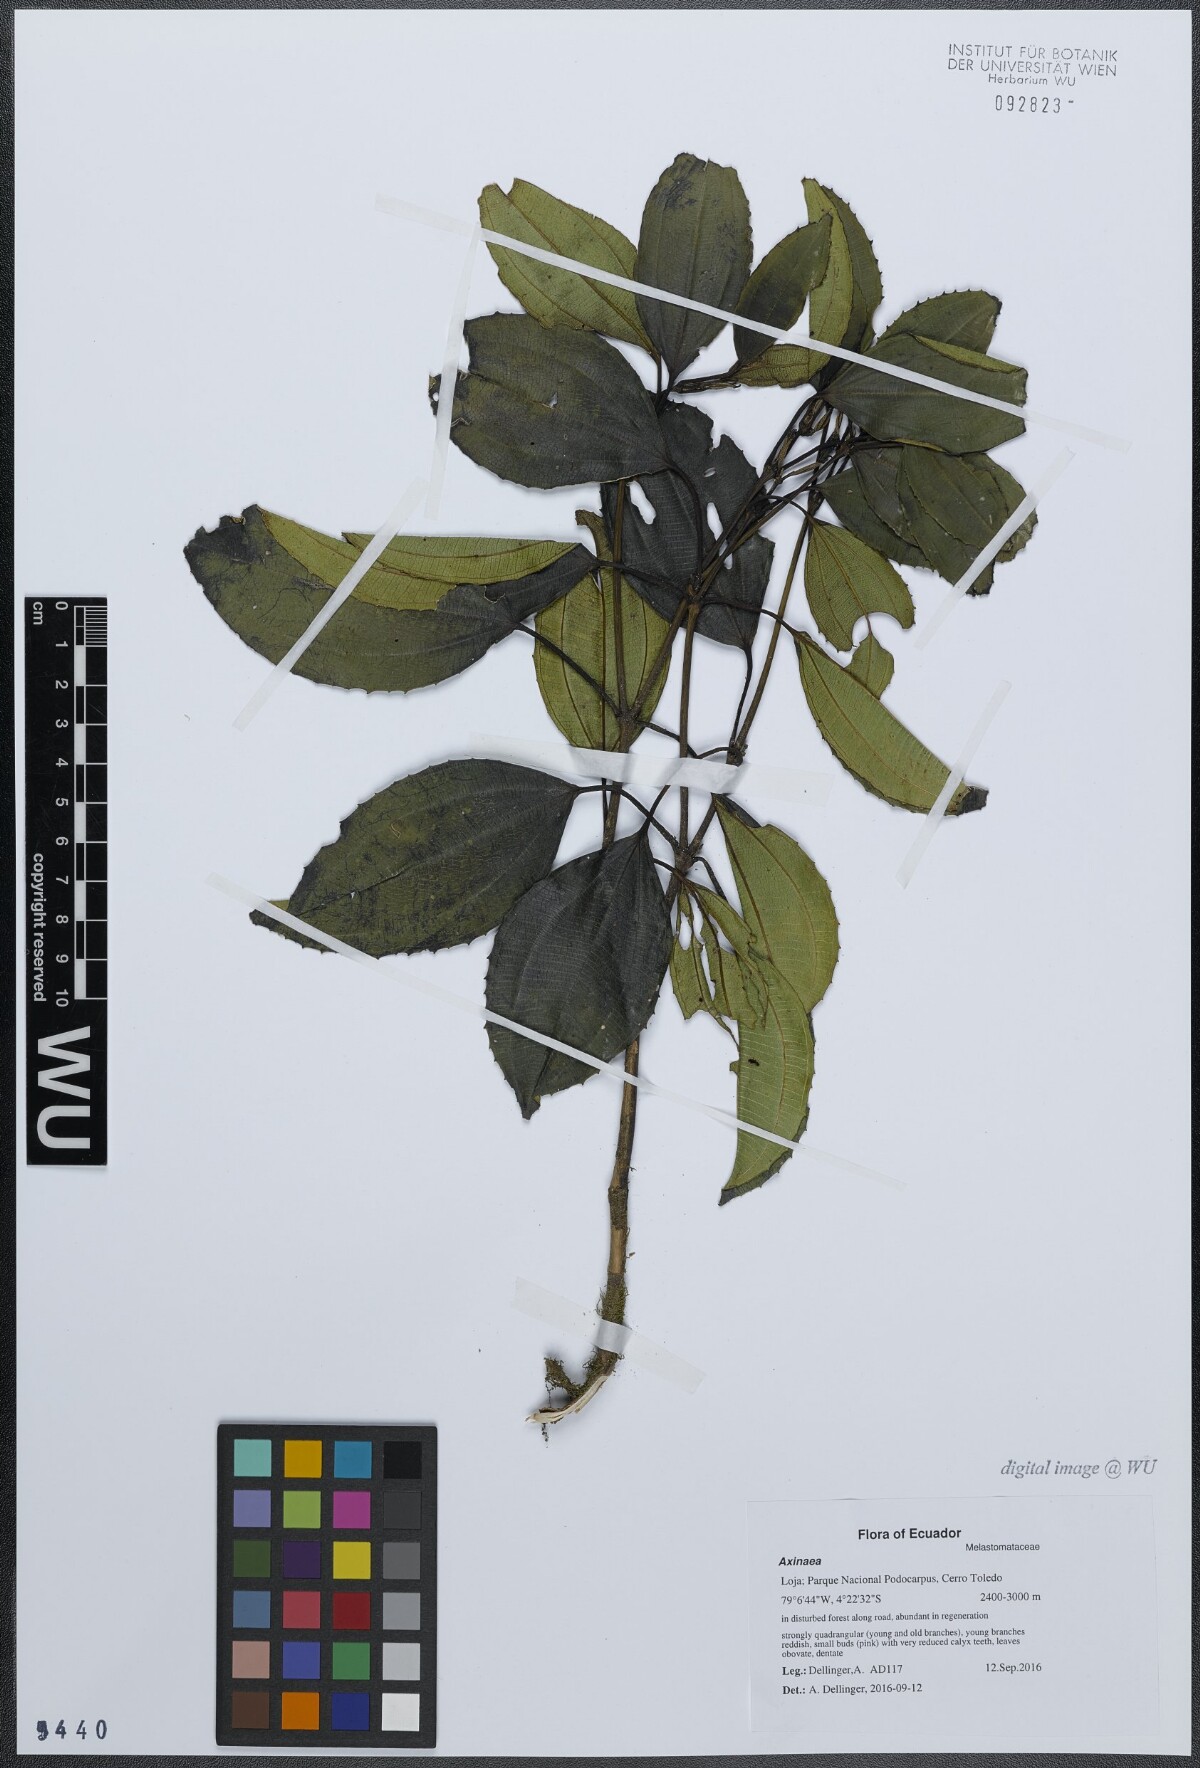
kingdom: Plantae
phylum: Tracheophyta
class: Magnoliopsida
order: Myrtales
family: Melastomataceae
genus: Axinaea
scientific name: Axinaea macrophylla
